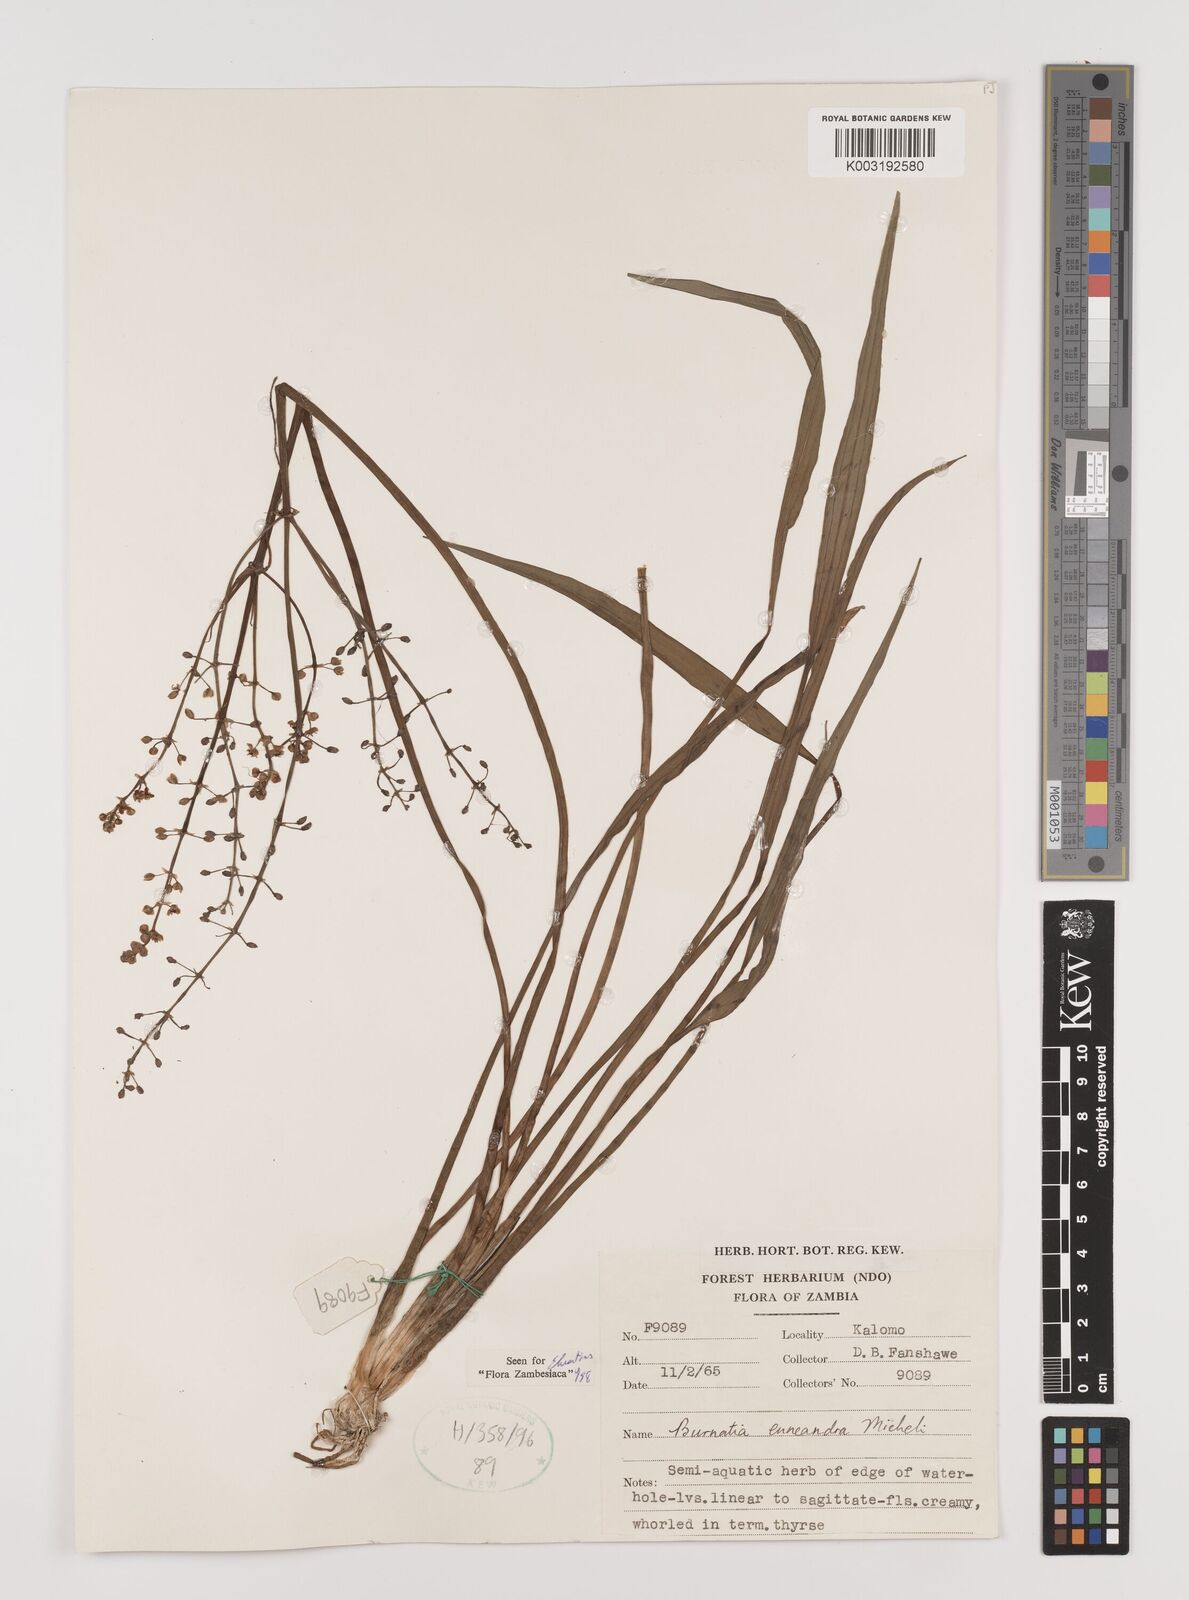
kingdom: Plantae
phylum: Tracheophyta
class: Liliopsida
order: Alismatales
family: Alismataceae
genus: Burnatia
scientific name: Burnatia enneandra
